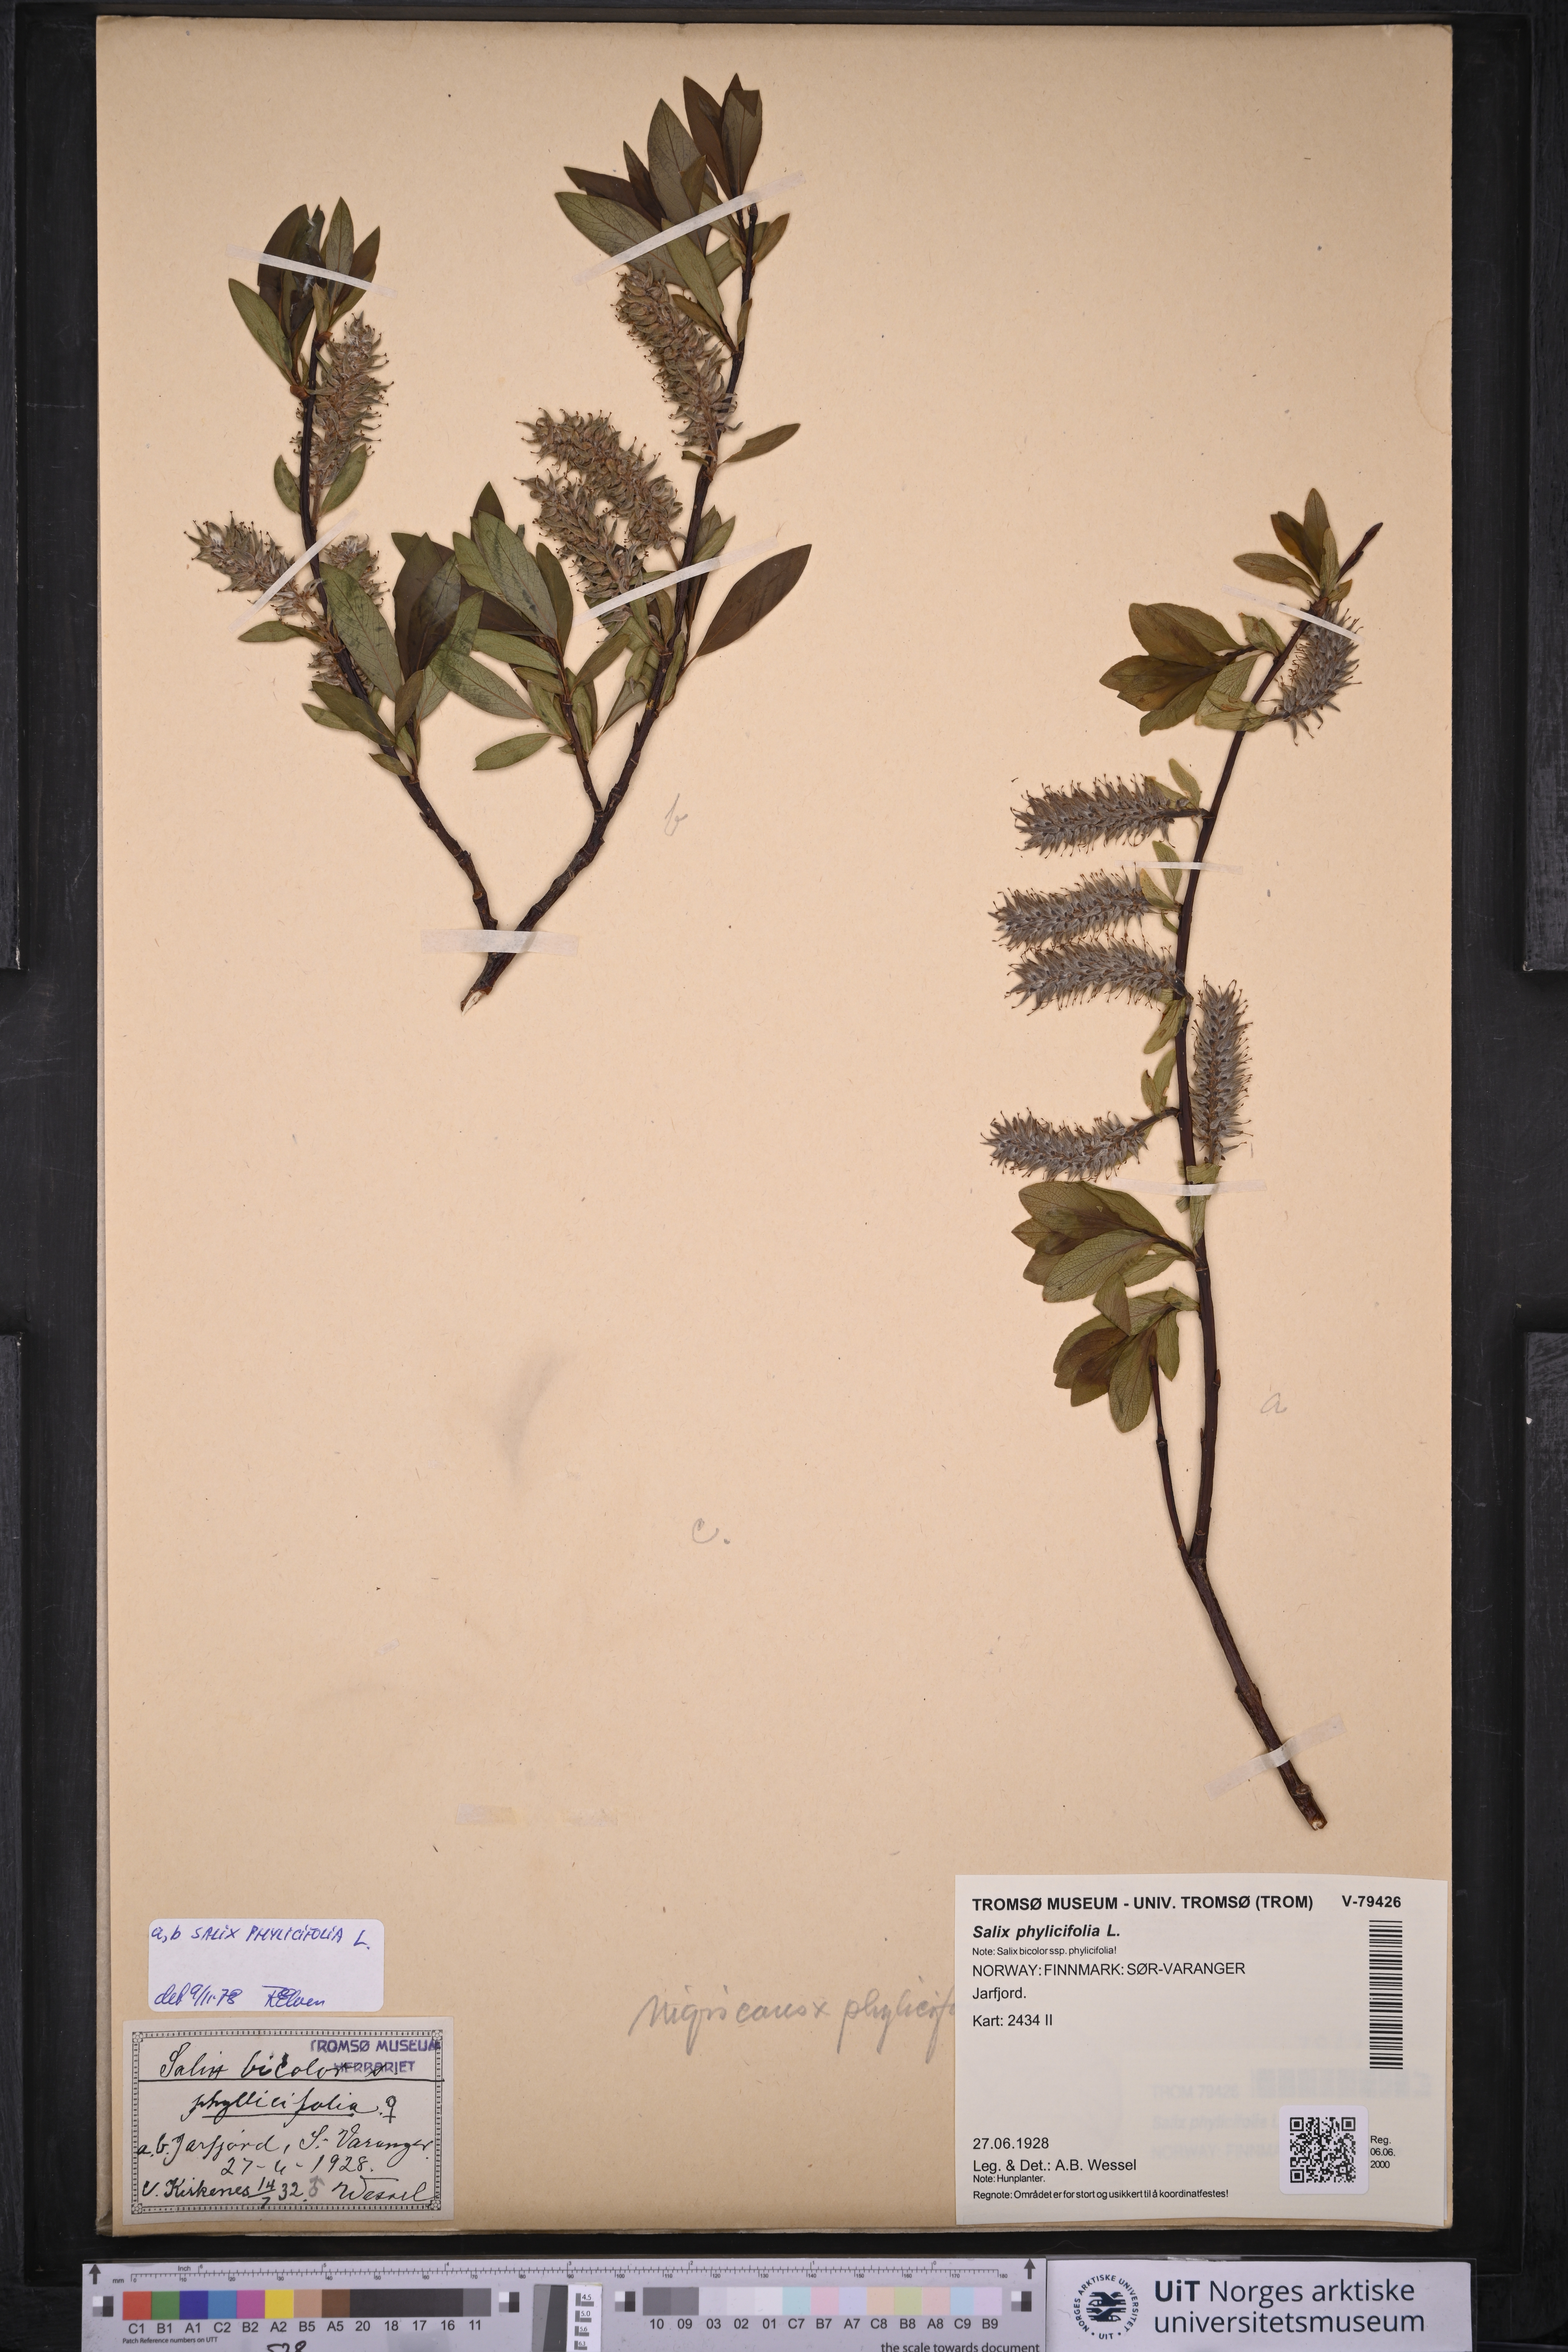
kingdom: Plantae
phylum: Tracheophyta
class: Magnoliopsida
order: Malpighiales
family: Salicaceae
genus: Salix
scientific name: Salix phylicifolia
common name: Tea-leaved willow
